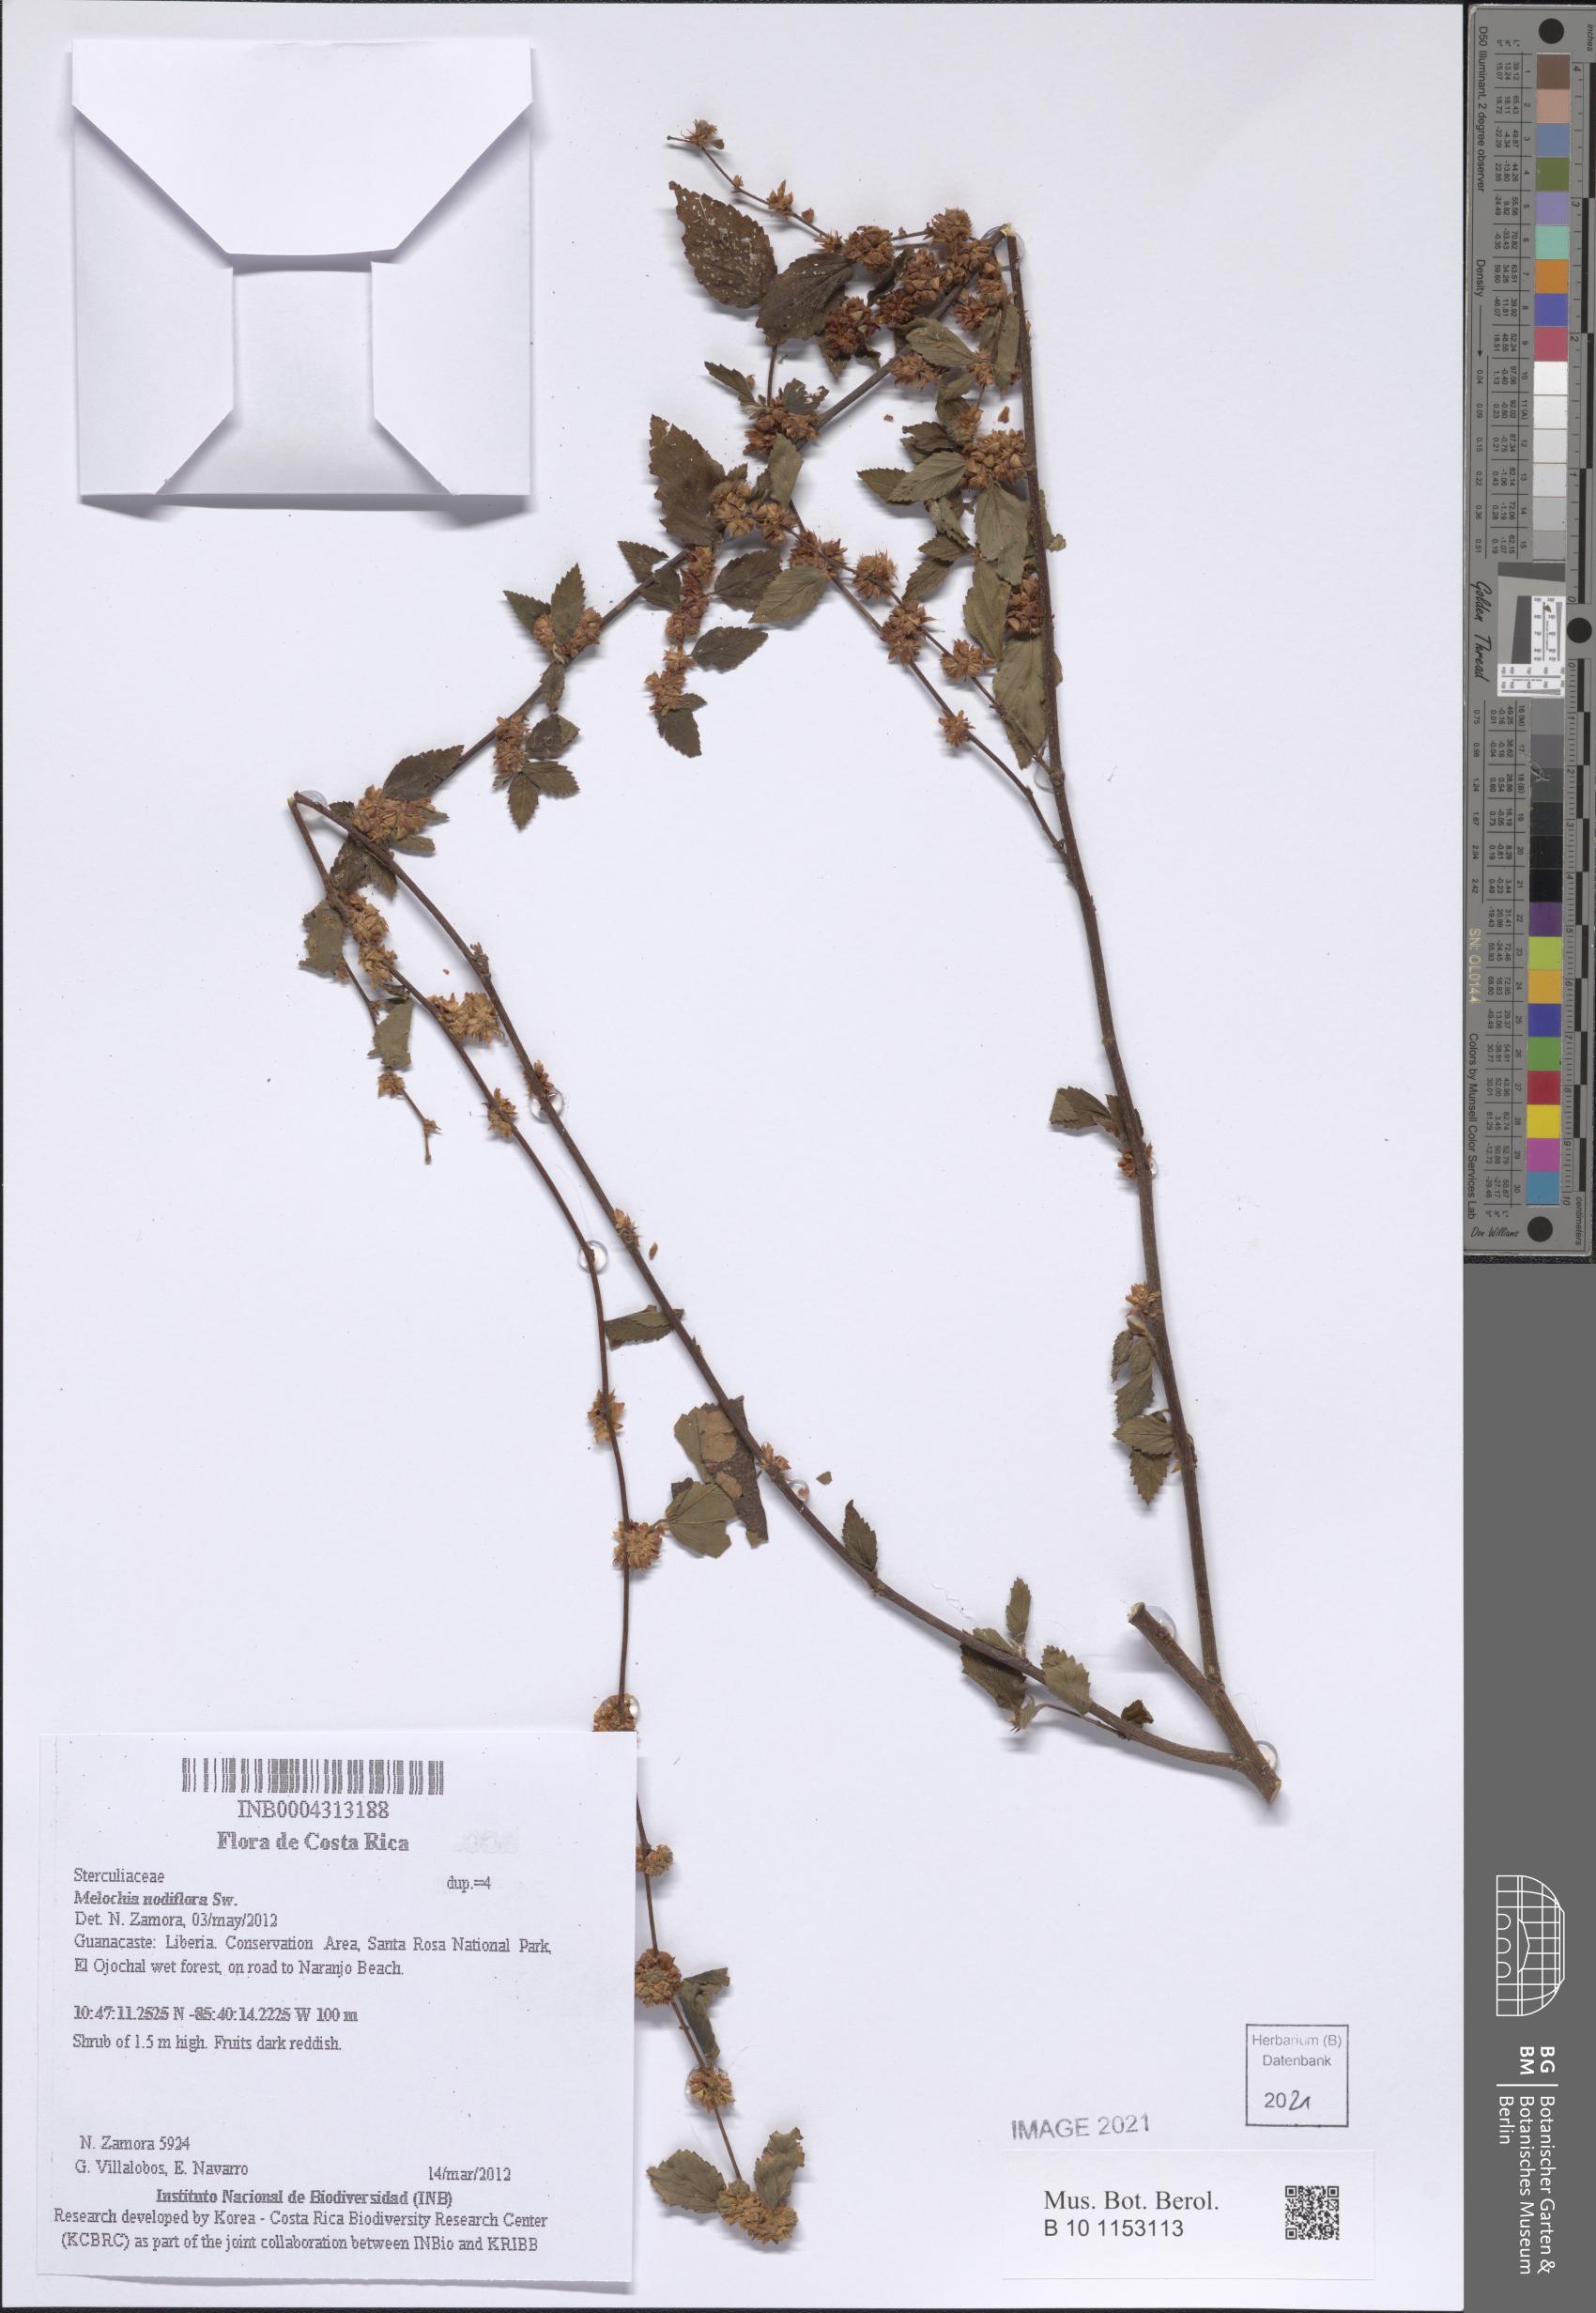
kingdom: Plantae
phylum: Tracheophyta
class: Magnoliopsida
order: Malvales
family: Malvaceae
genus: Melochia
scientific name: Melochia nodiflora
